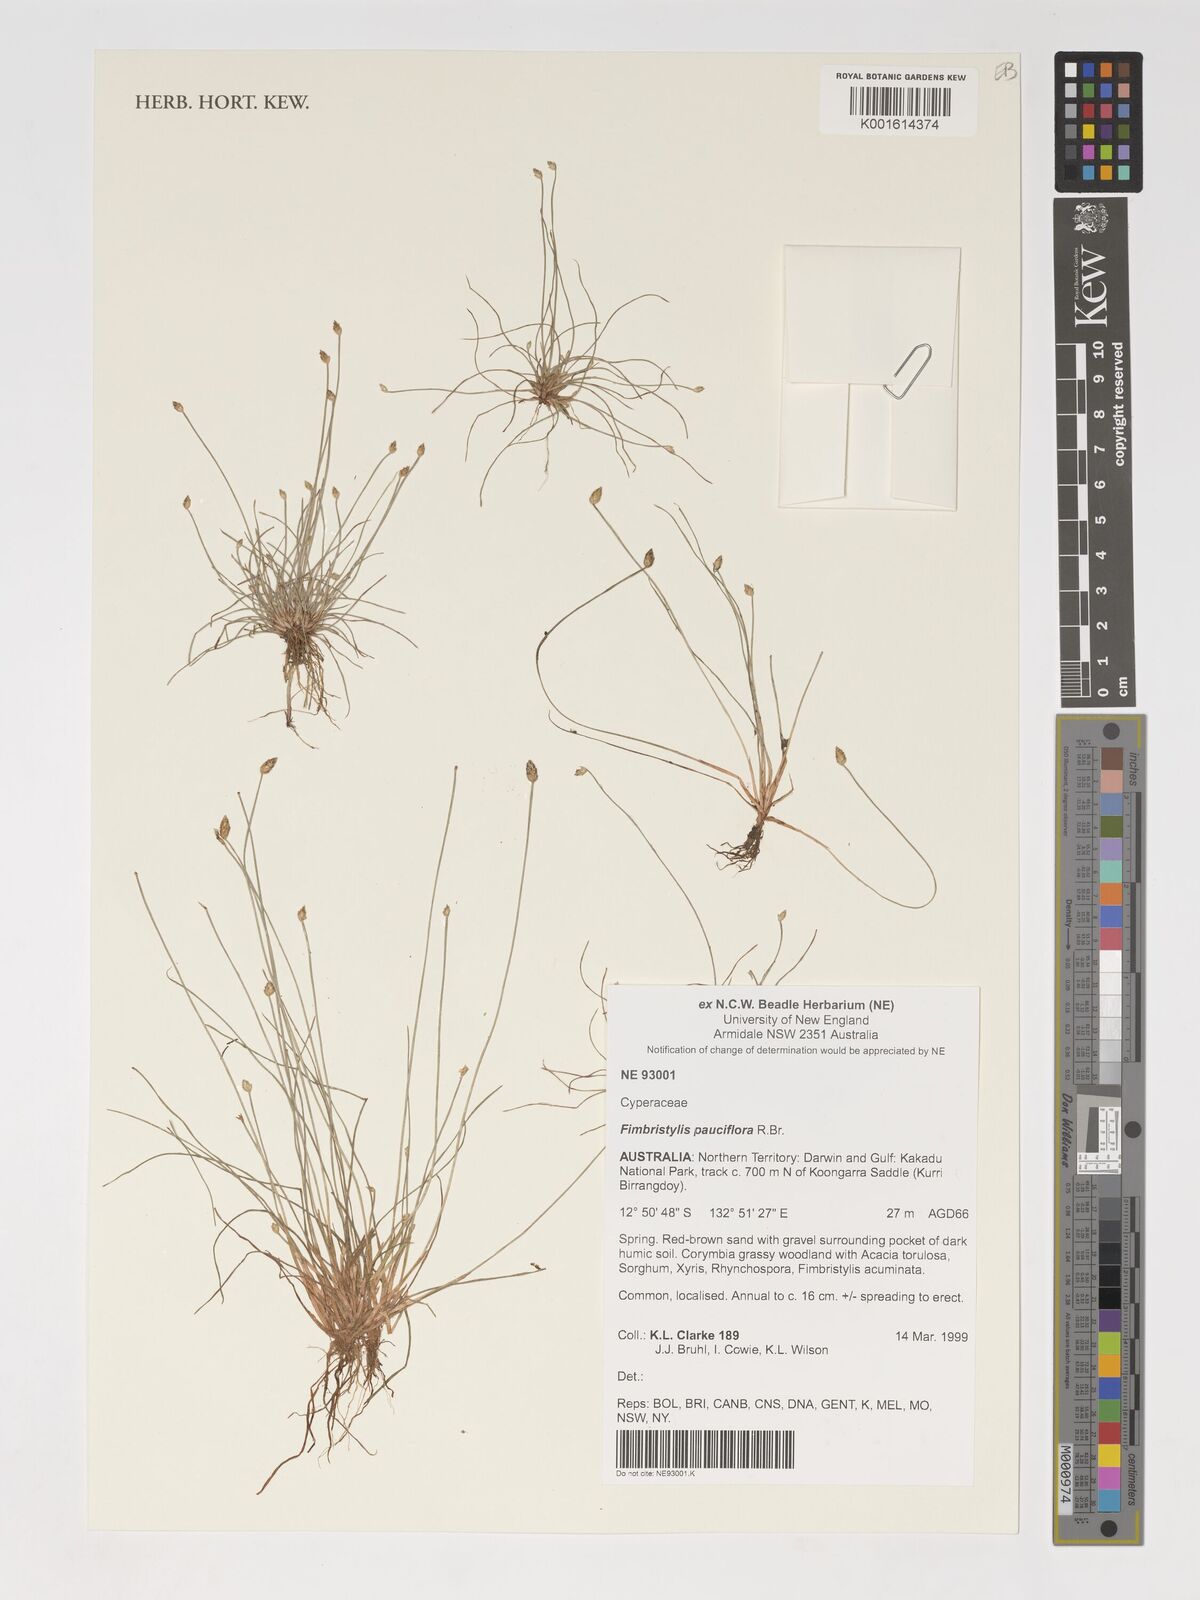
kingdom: Plantae
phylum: Tracheophyta
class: Liliopsida
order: Poales
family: Cyperaceae
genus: Fimbristylis
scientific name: Fimbristylis pauciflora
